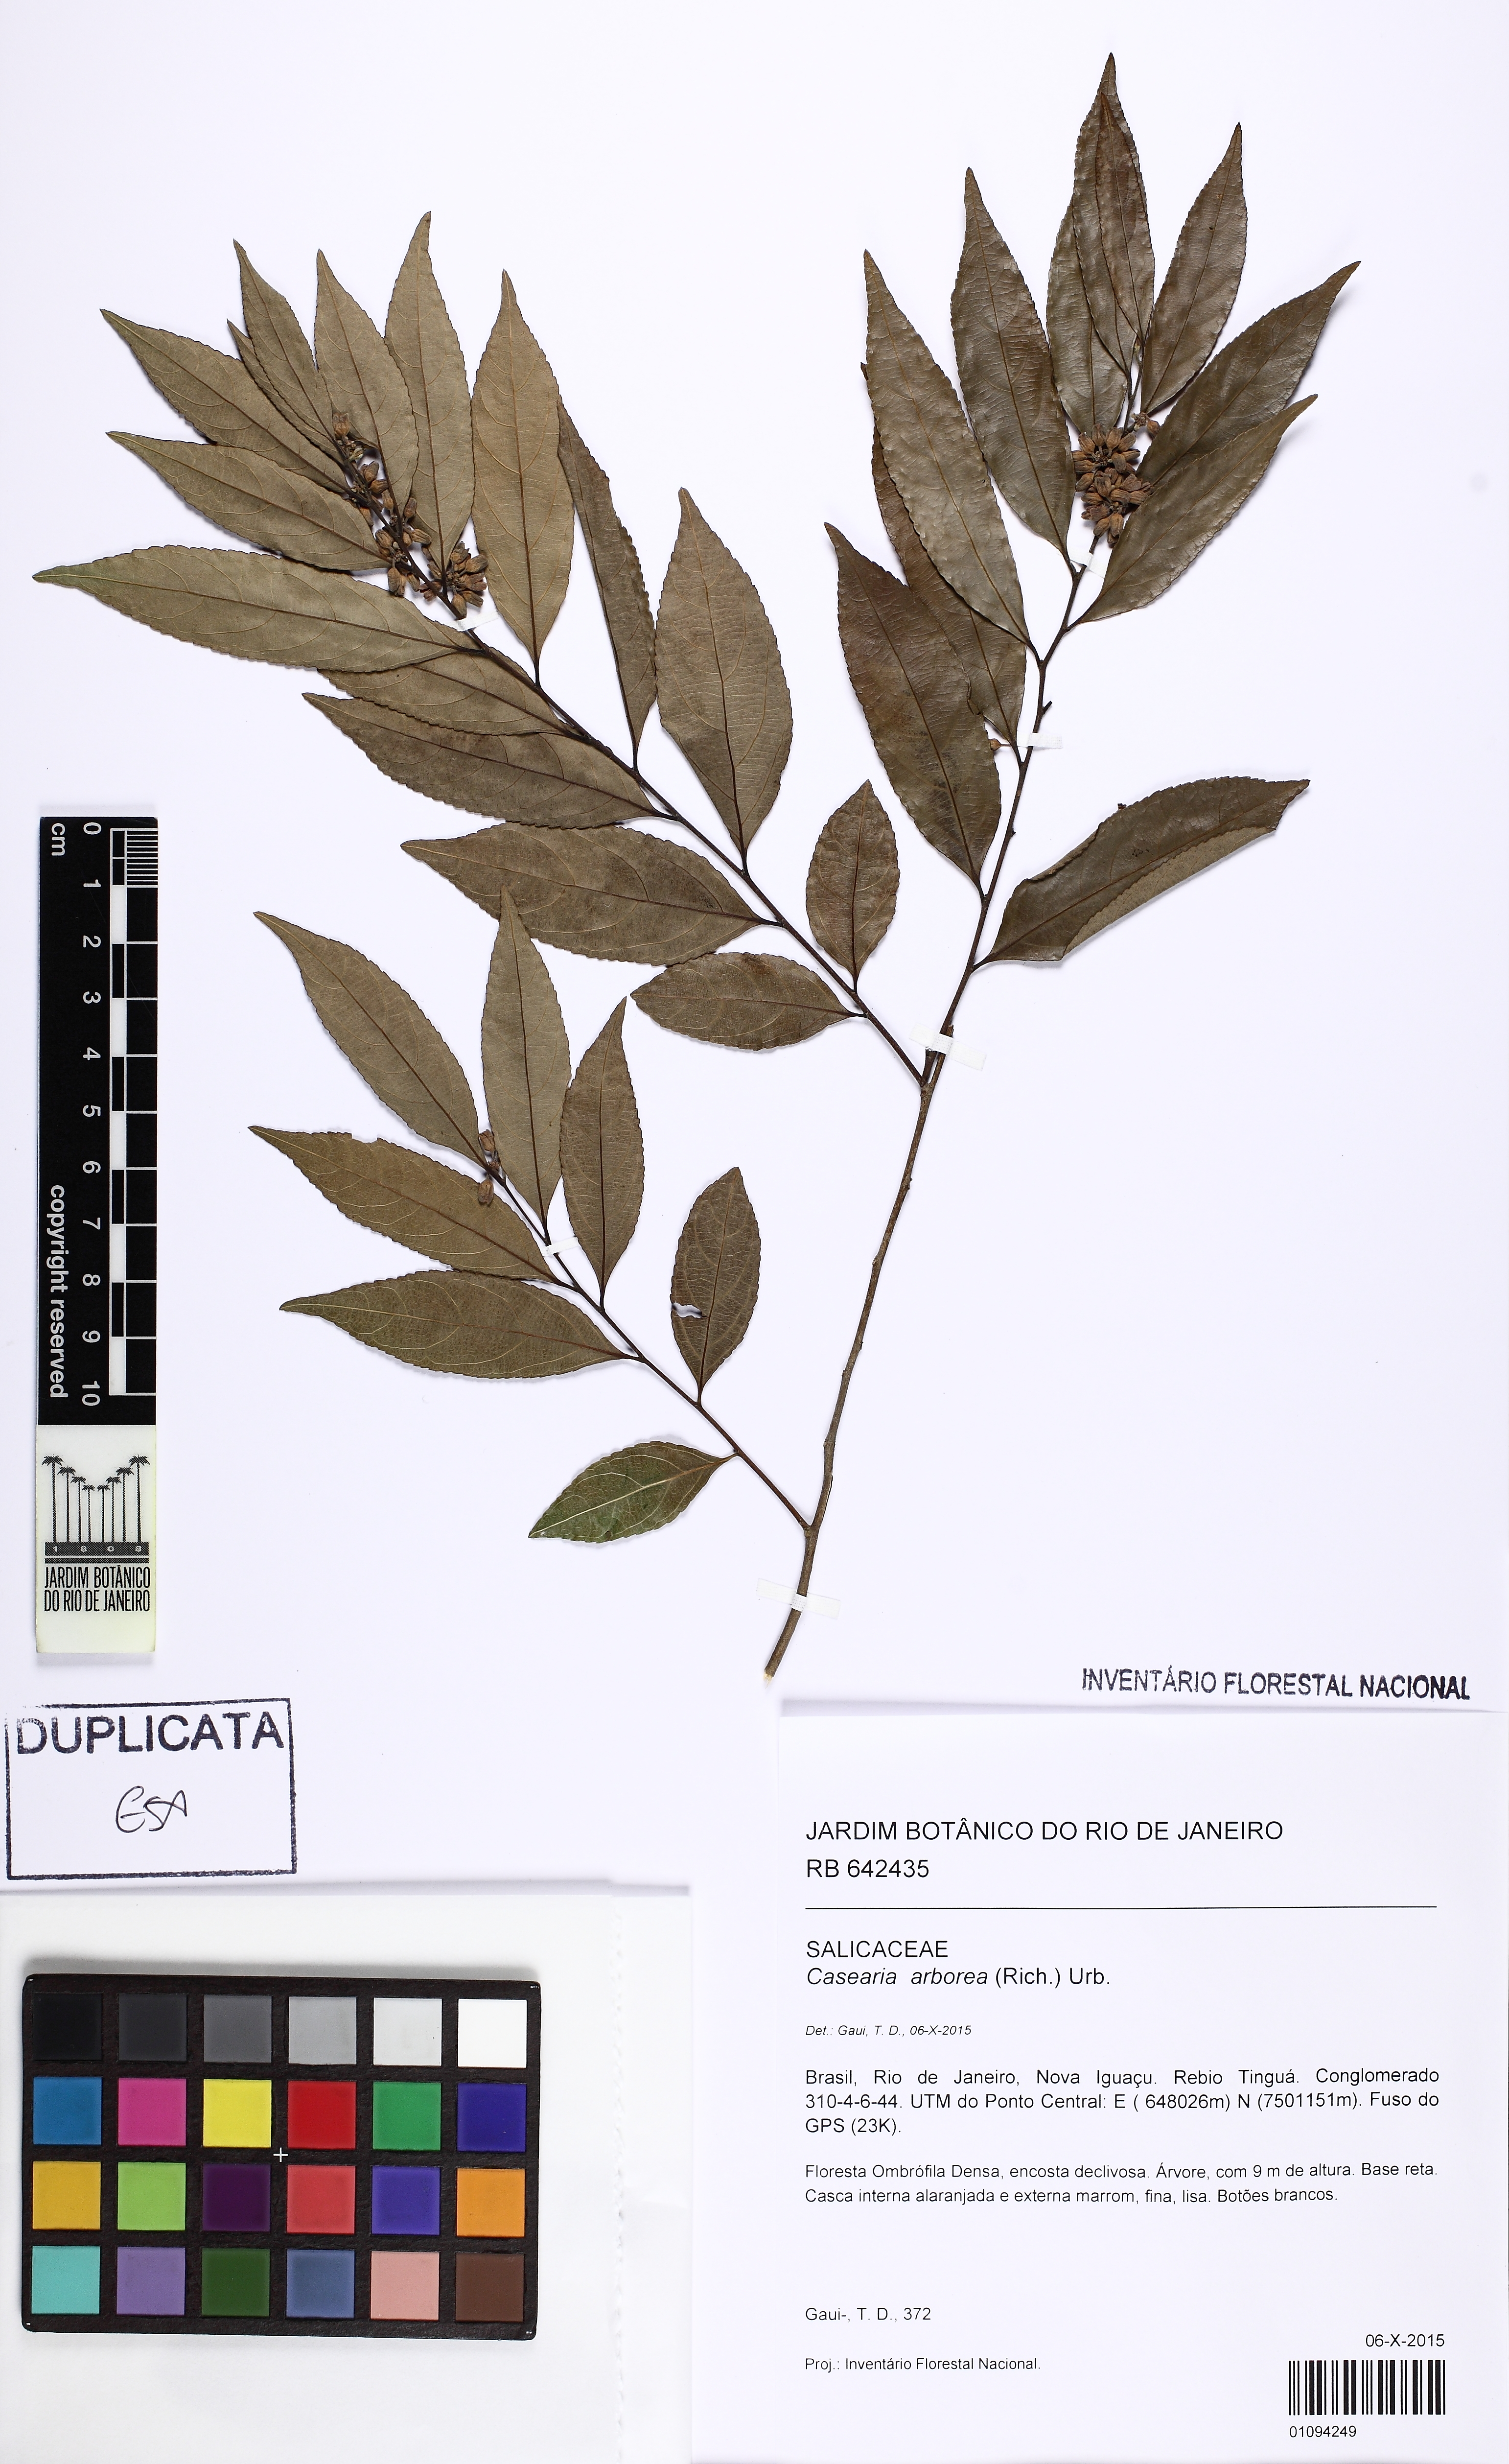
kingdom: Plantae
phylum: Tracheophyta
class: Magnoliopsida
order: Malpighiales
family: Salicaceae
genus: Casearia
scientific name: Casearia arborea
